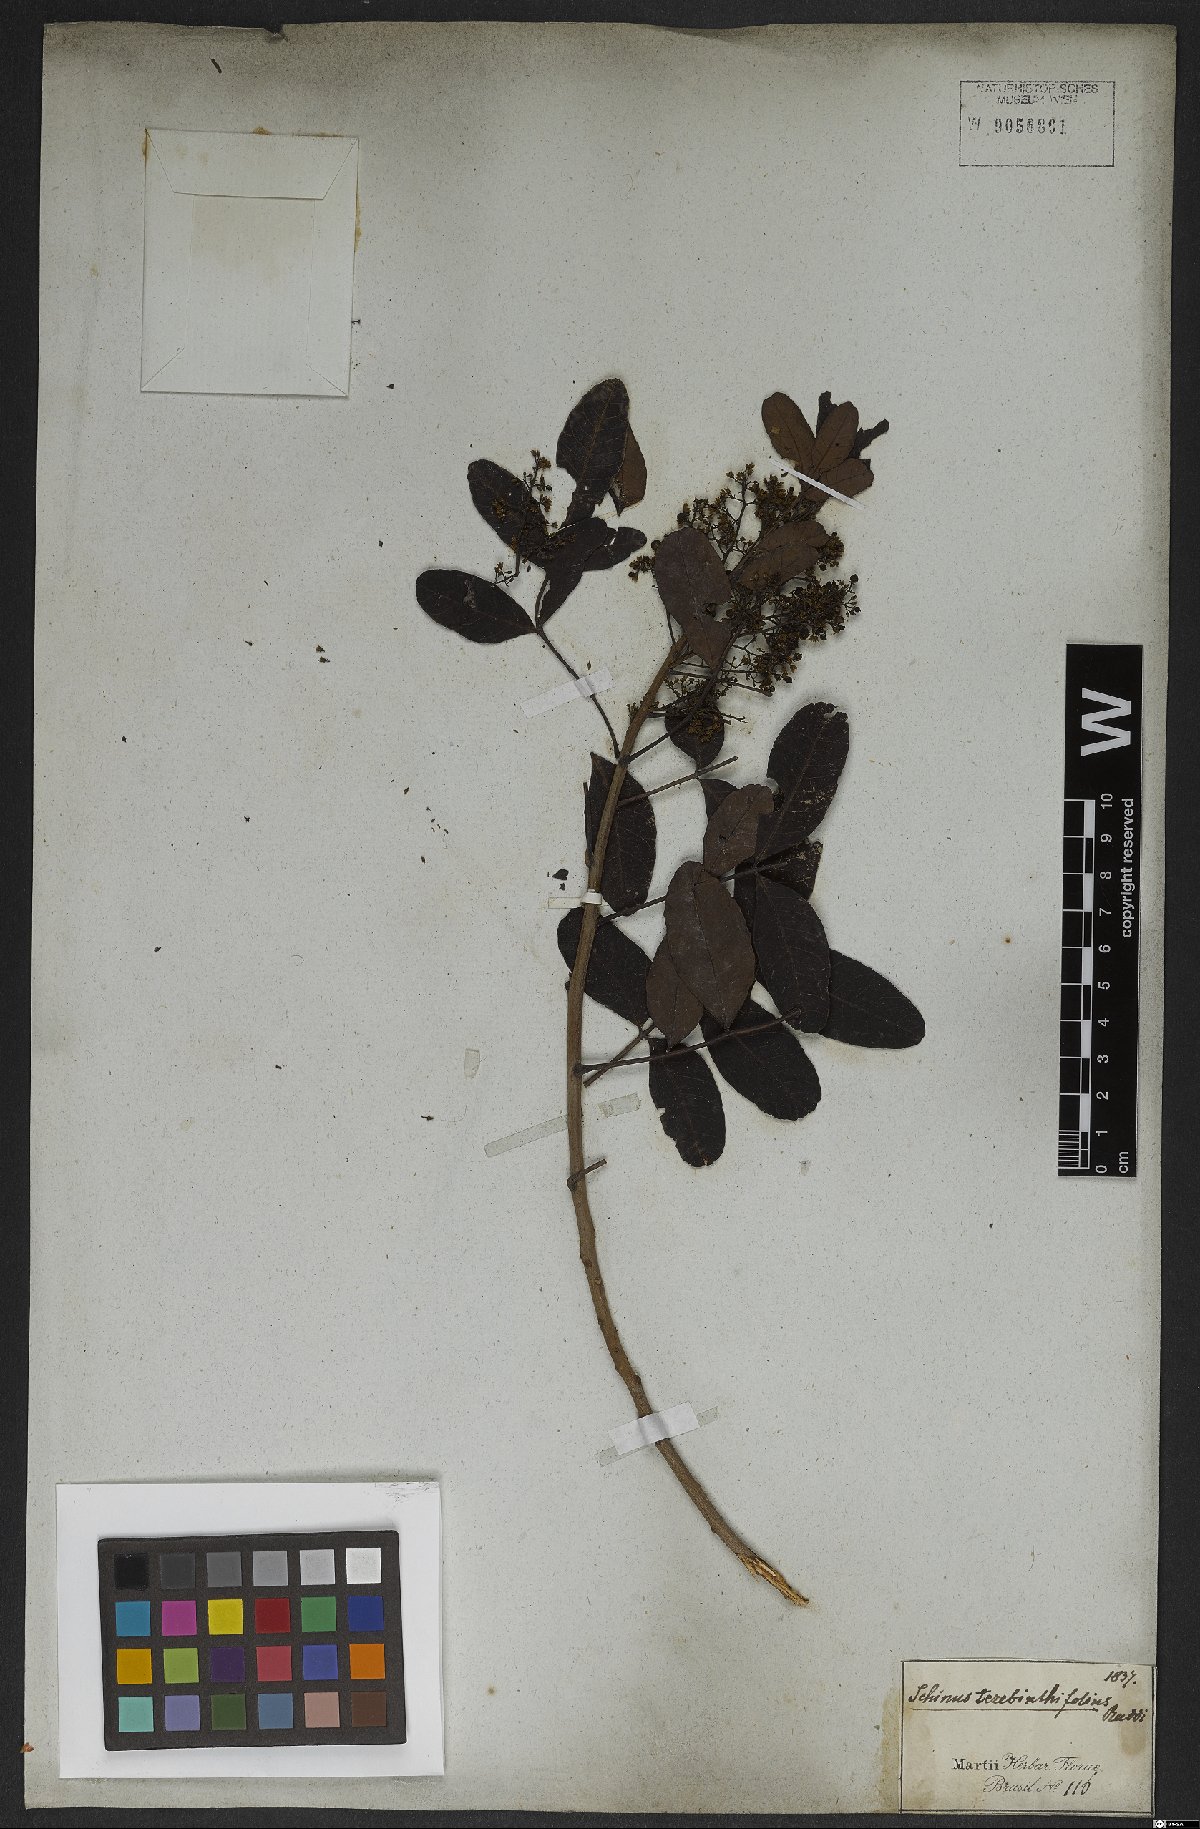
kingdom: Plantae
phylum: Tracheophyta
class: Magnoliopsida
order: Gentianales
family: Apocynaceae
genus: Prestonia
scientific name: Prestonia denticulata
